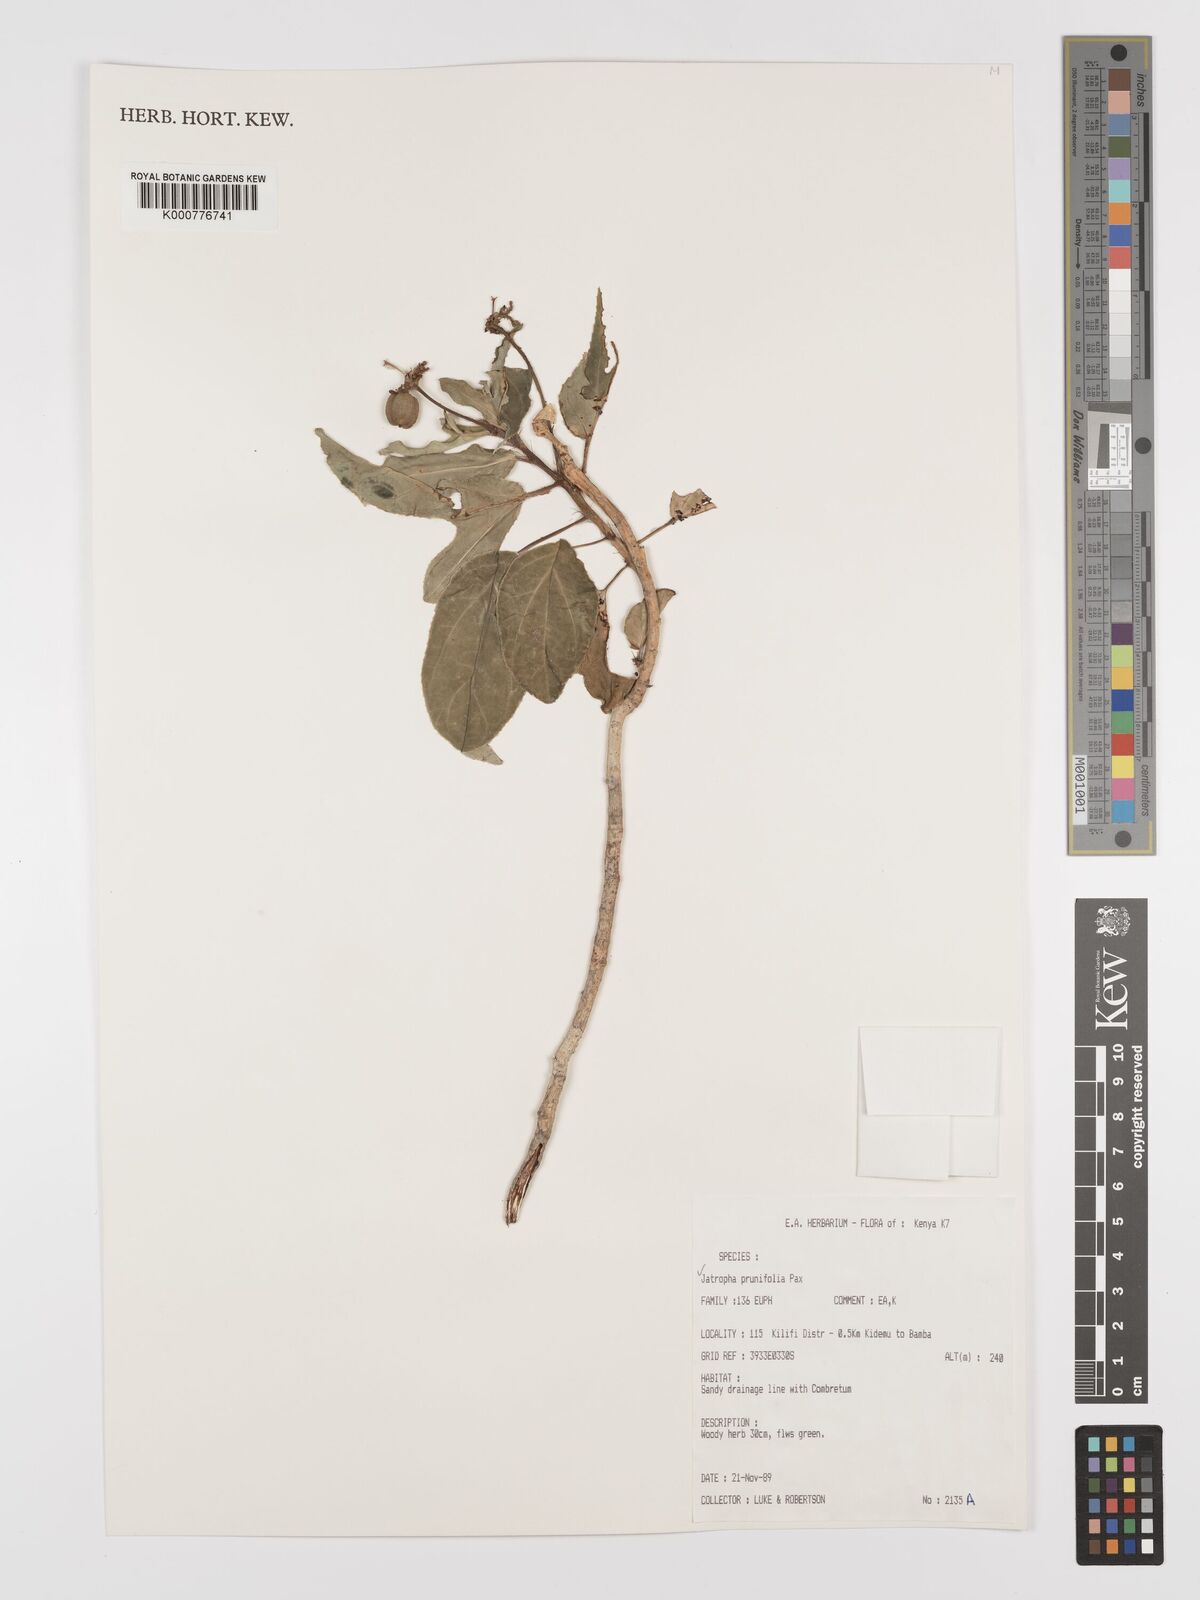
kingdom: Plantae
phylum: Tracheophyta
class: Magnoliopsida
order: Malpighiales
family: Euphorbiaceae
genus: Jatropha
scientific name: Jatropha
